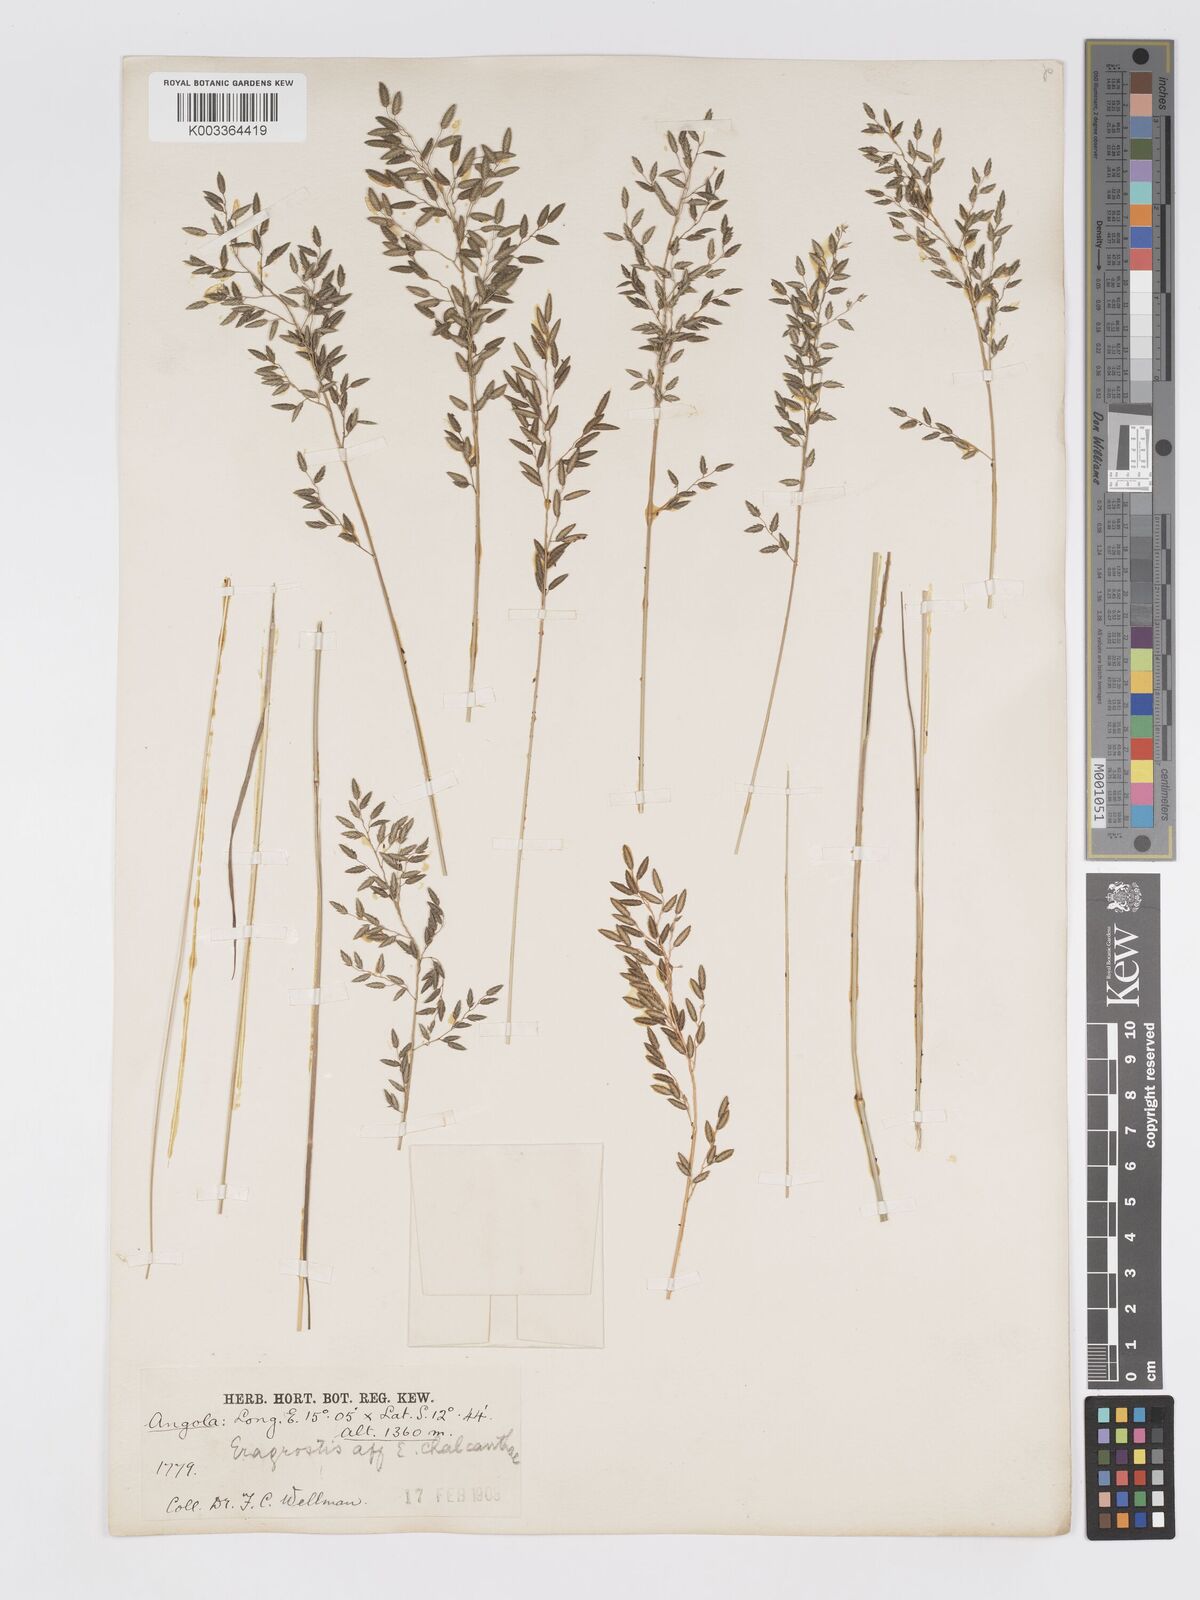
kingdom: Plantae
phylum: Tracheophyta
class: Liliopsida
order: Poales
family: Poaceae
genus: Eragrostis
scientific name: Eragrostis racemosa
